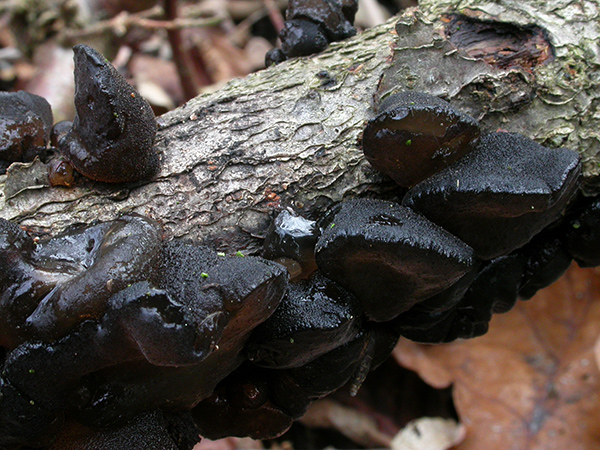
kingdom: Fungi
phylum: Basidiomycota
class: Agaricomycetes
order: Auriculariales
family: Auriculariaceae
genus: Exidia
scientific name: Exidia glandulosa
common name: ege-bævretop
